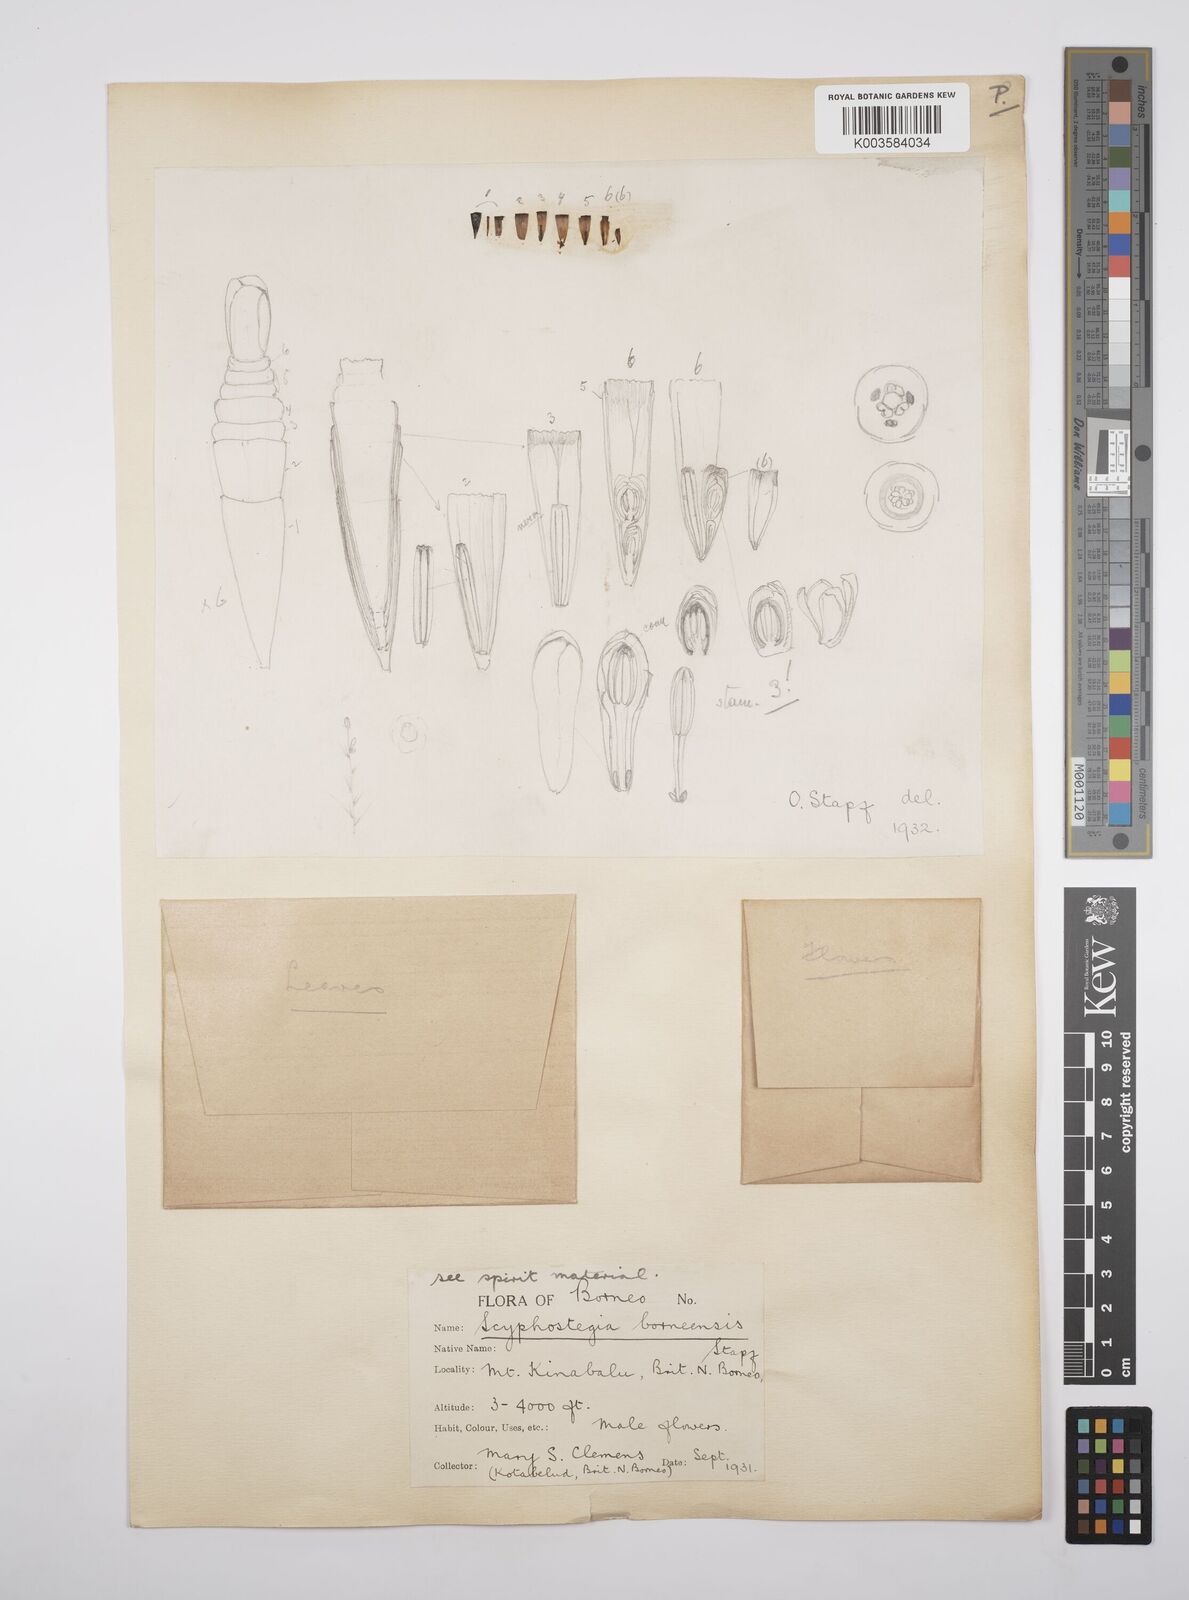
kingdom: Plantae
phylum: Tracheophyta
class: Magnoliopsida
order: Malpighiales
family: Salicaceae
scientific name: Salicaceae
